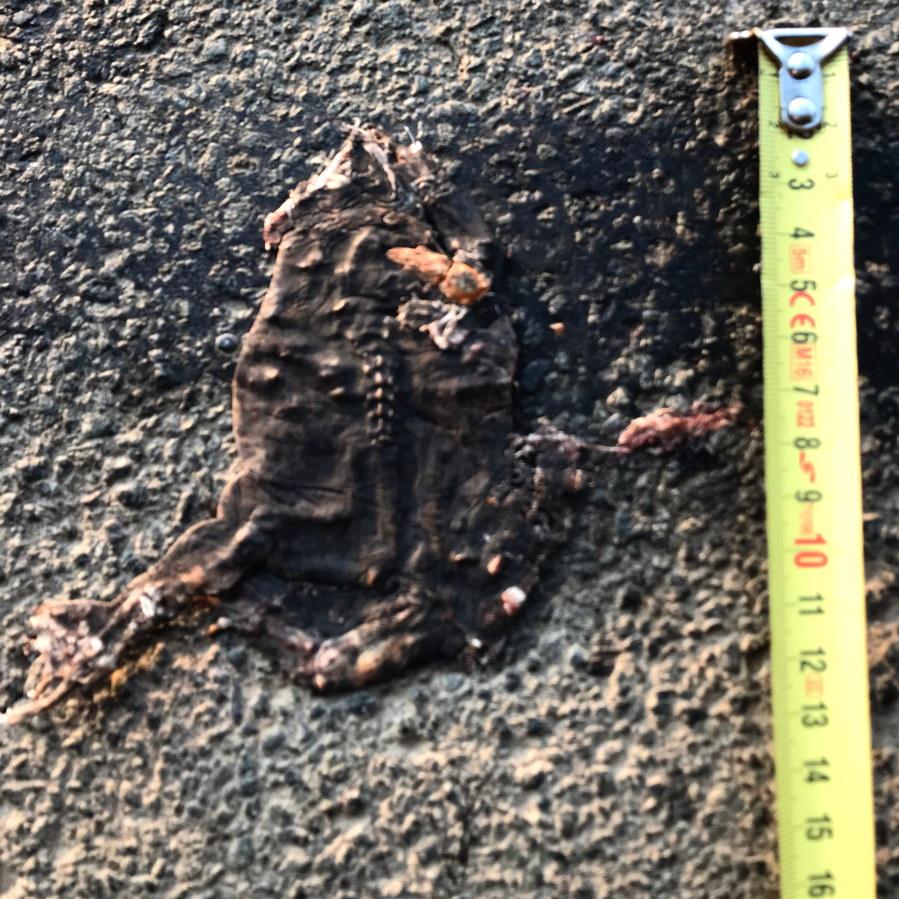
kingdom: Animalia
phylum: Chordata
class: Amphibia
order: Anura
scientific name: Anura
